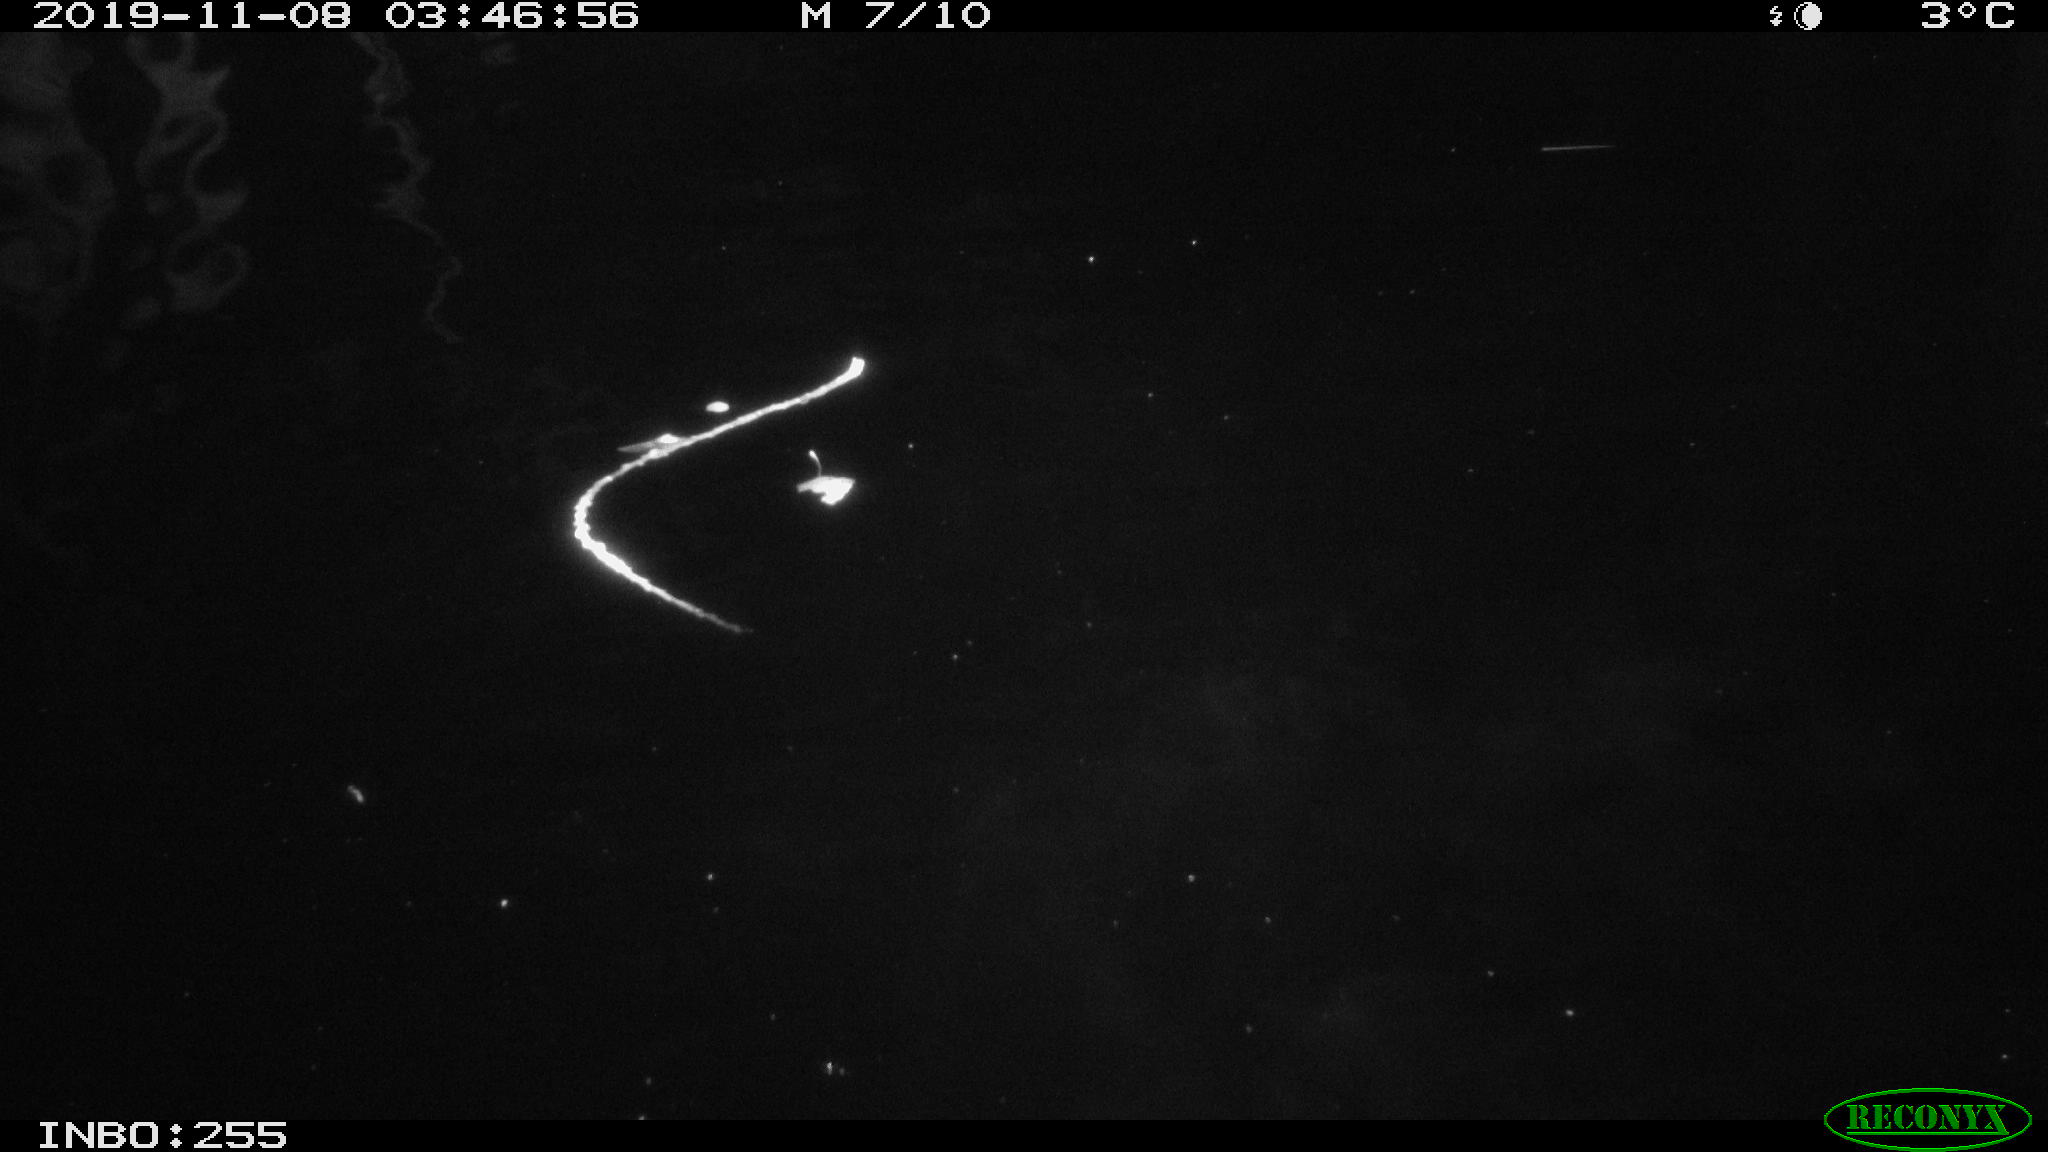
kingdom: Animalia
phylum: Chordata
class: Mammalia
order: Rodentia
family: Cricetidae
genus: Ondatra
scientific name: Ondatra zibethicus
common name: Muskrat
